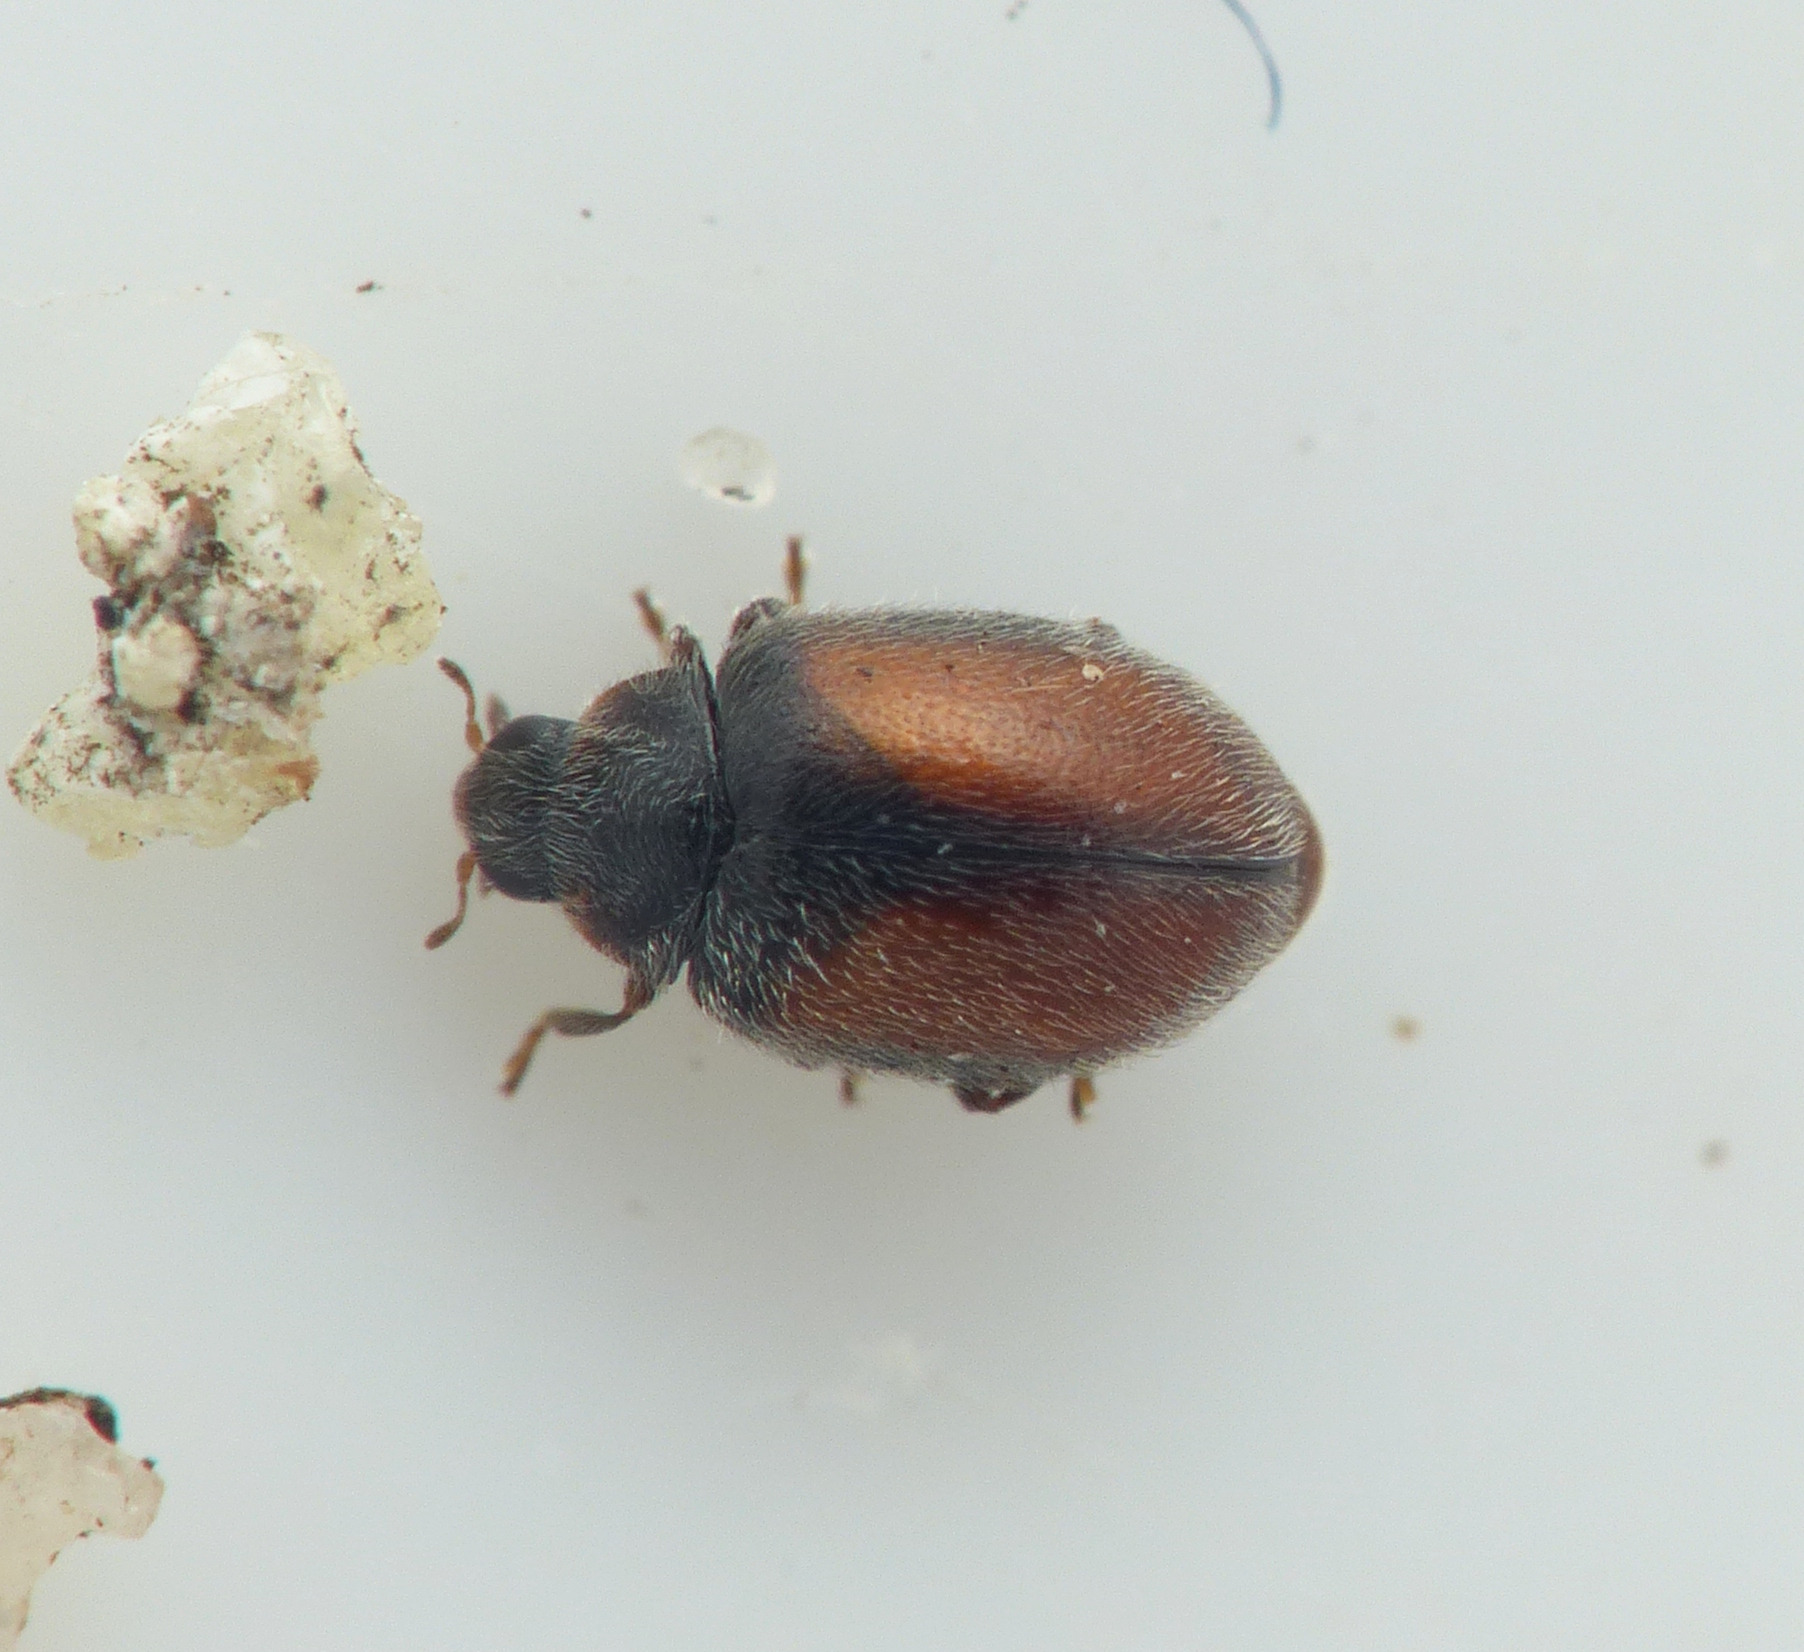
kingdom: Animalia
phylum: Arthropoda
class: Insecta
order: Coleoptera
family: Coccinellidae
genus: Scymnus
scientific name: Scymnus suturalis
